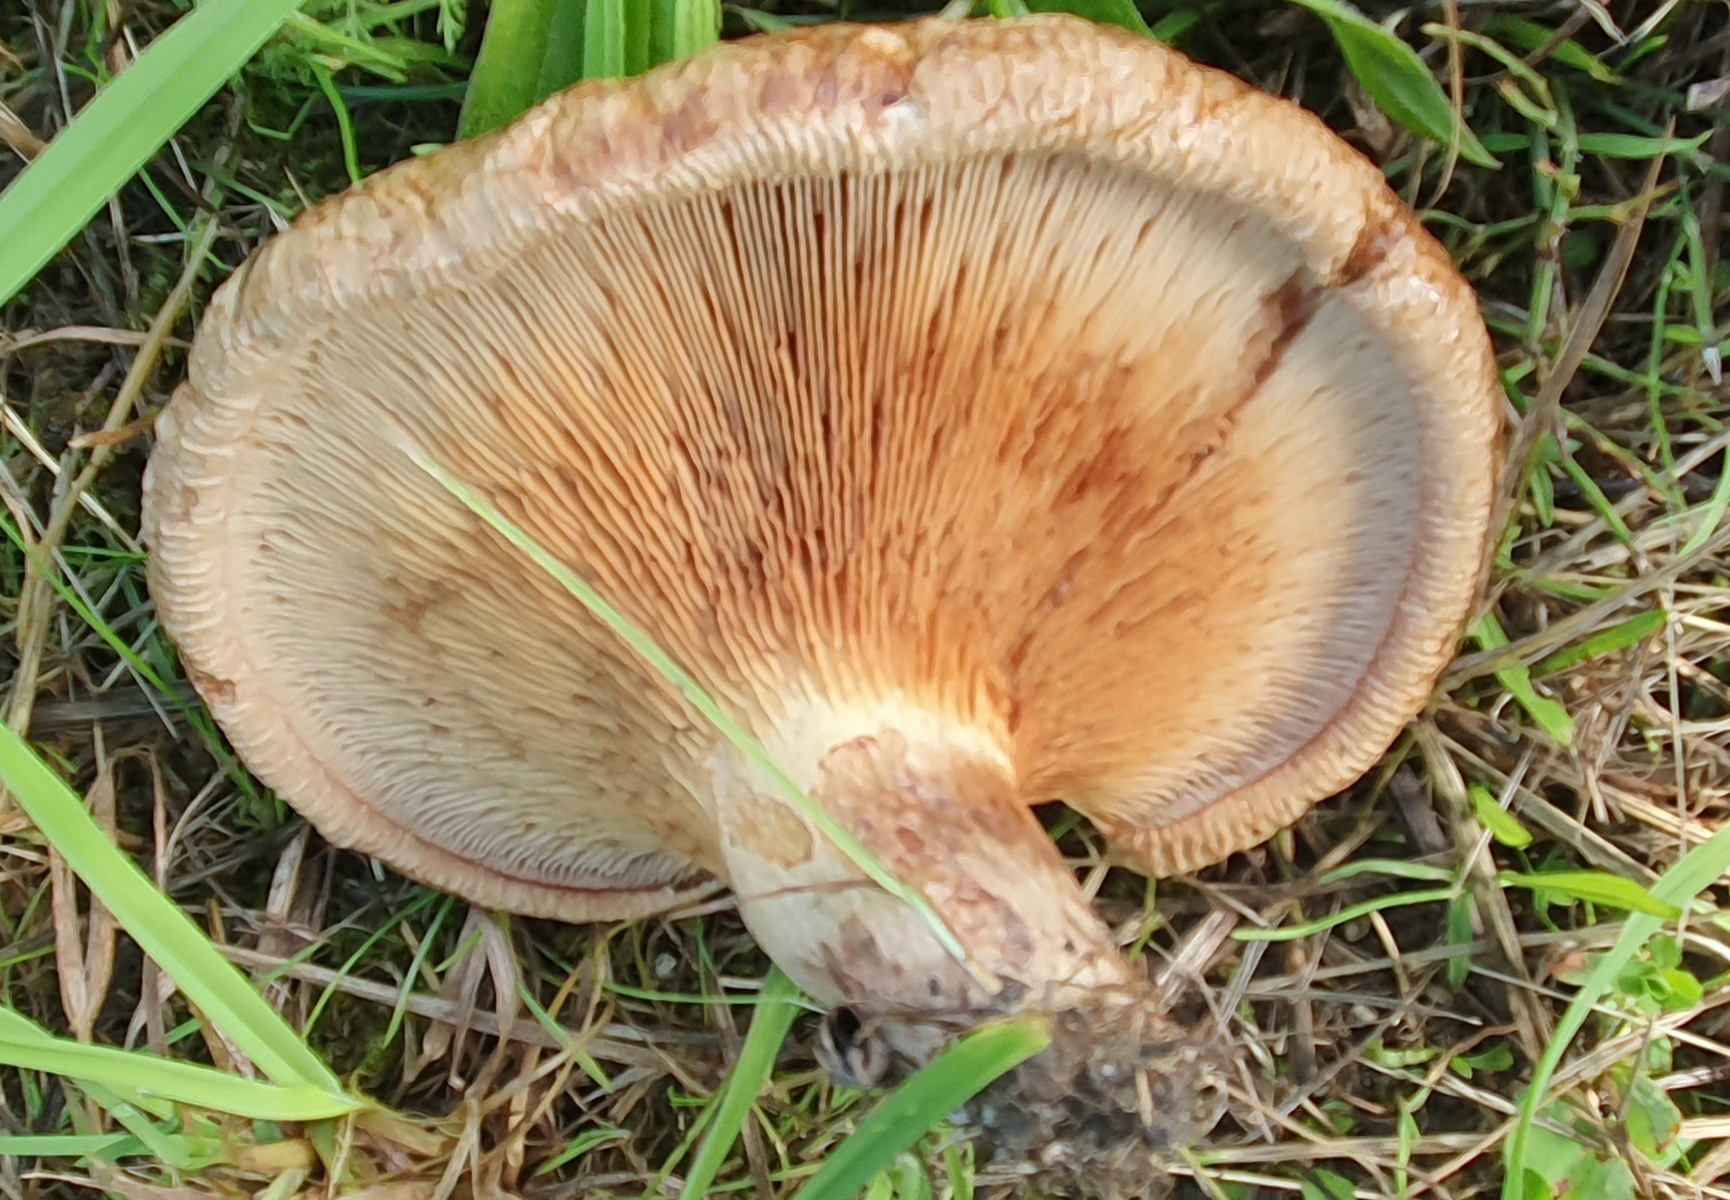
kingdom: Fungi
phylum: Basidiomycota
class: Agaricomycetes
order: Boletales
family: Paxillaceae
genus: Paxillus
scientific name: Paxillus obscurisporus
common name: mahognisporet netbladhat
